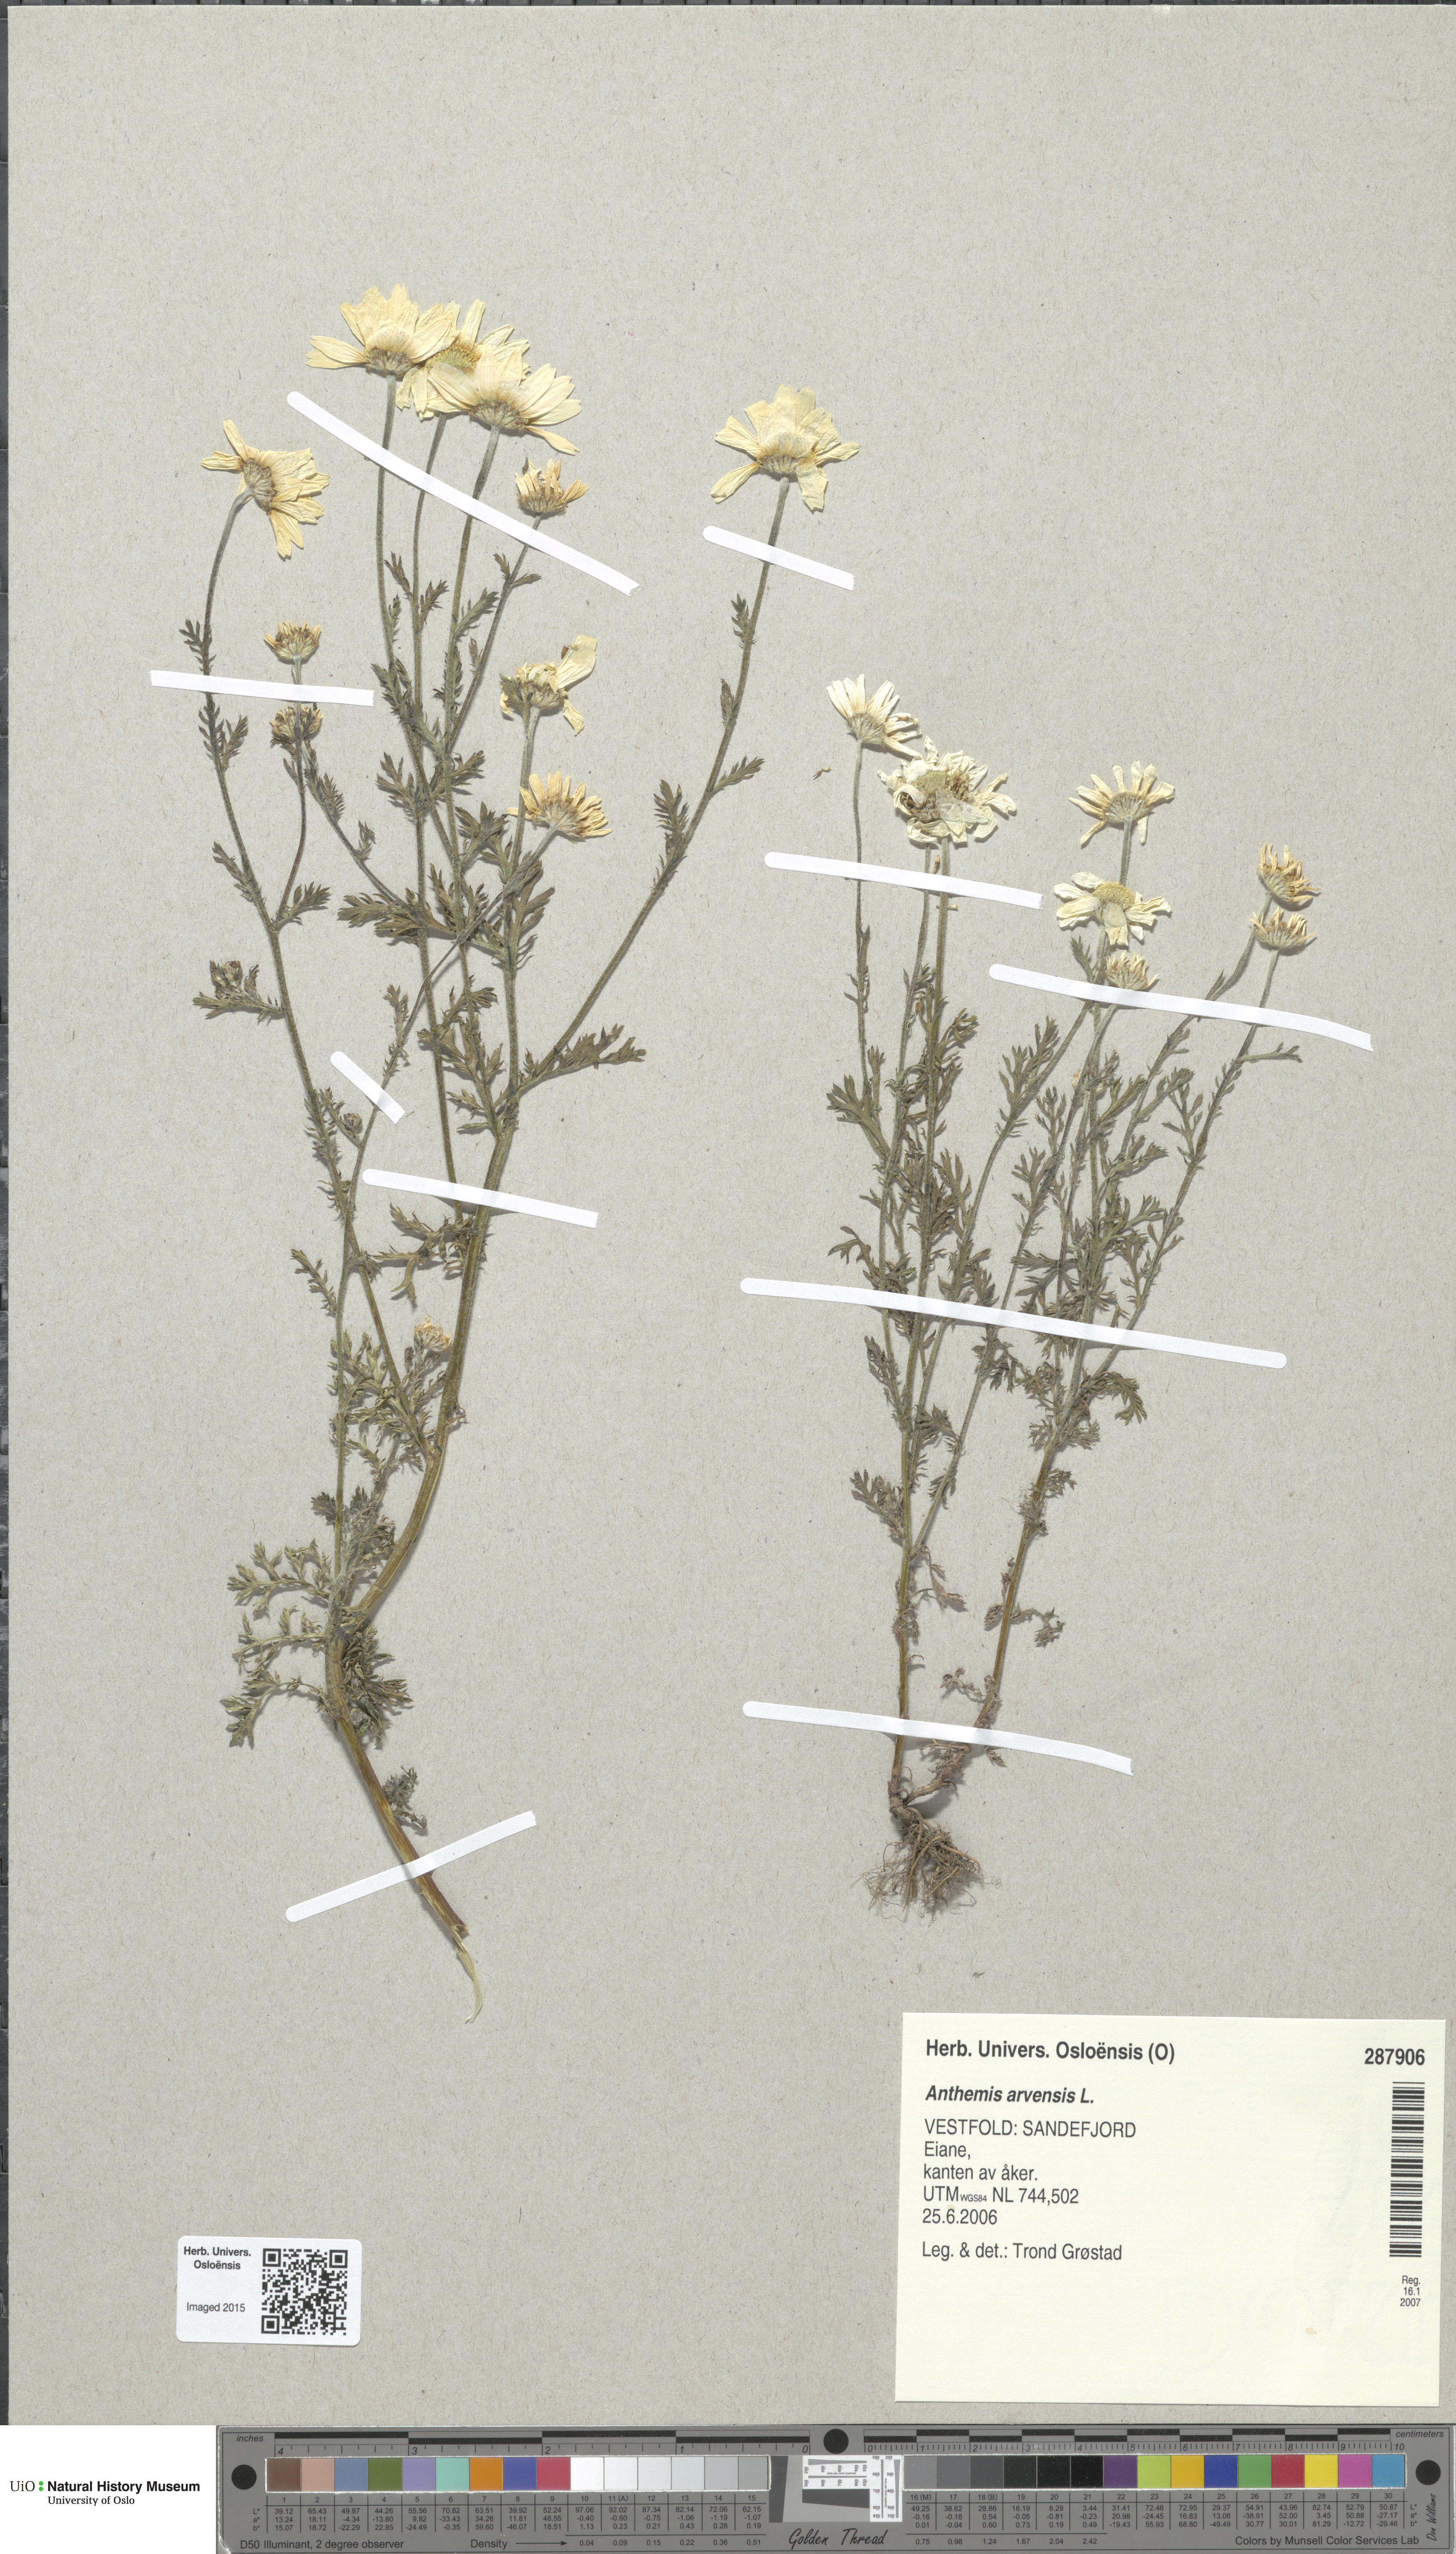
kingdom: Plantae
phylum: Tracheophyta
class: Magnoliopsida
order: Asterales
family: Asteraceae
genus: Anthemis
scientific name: Anthemis arvensis
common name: Corn chamomile
